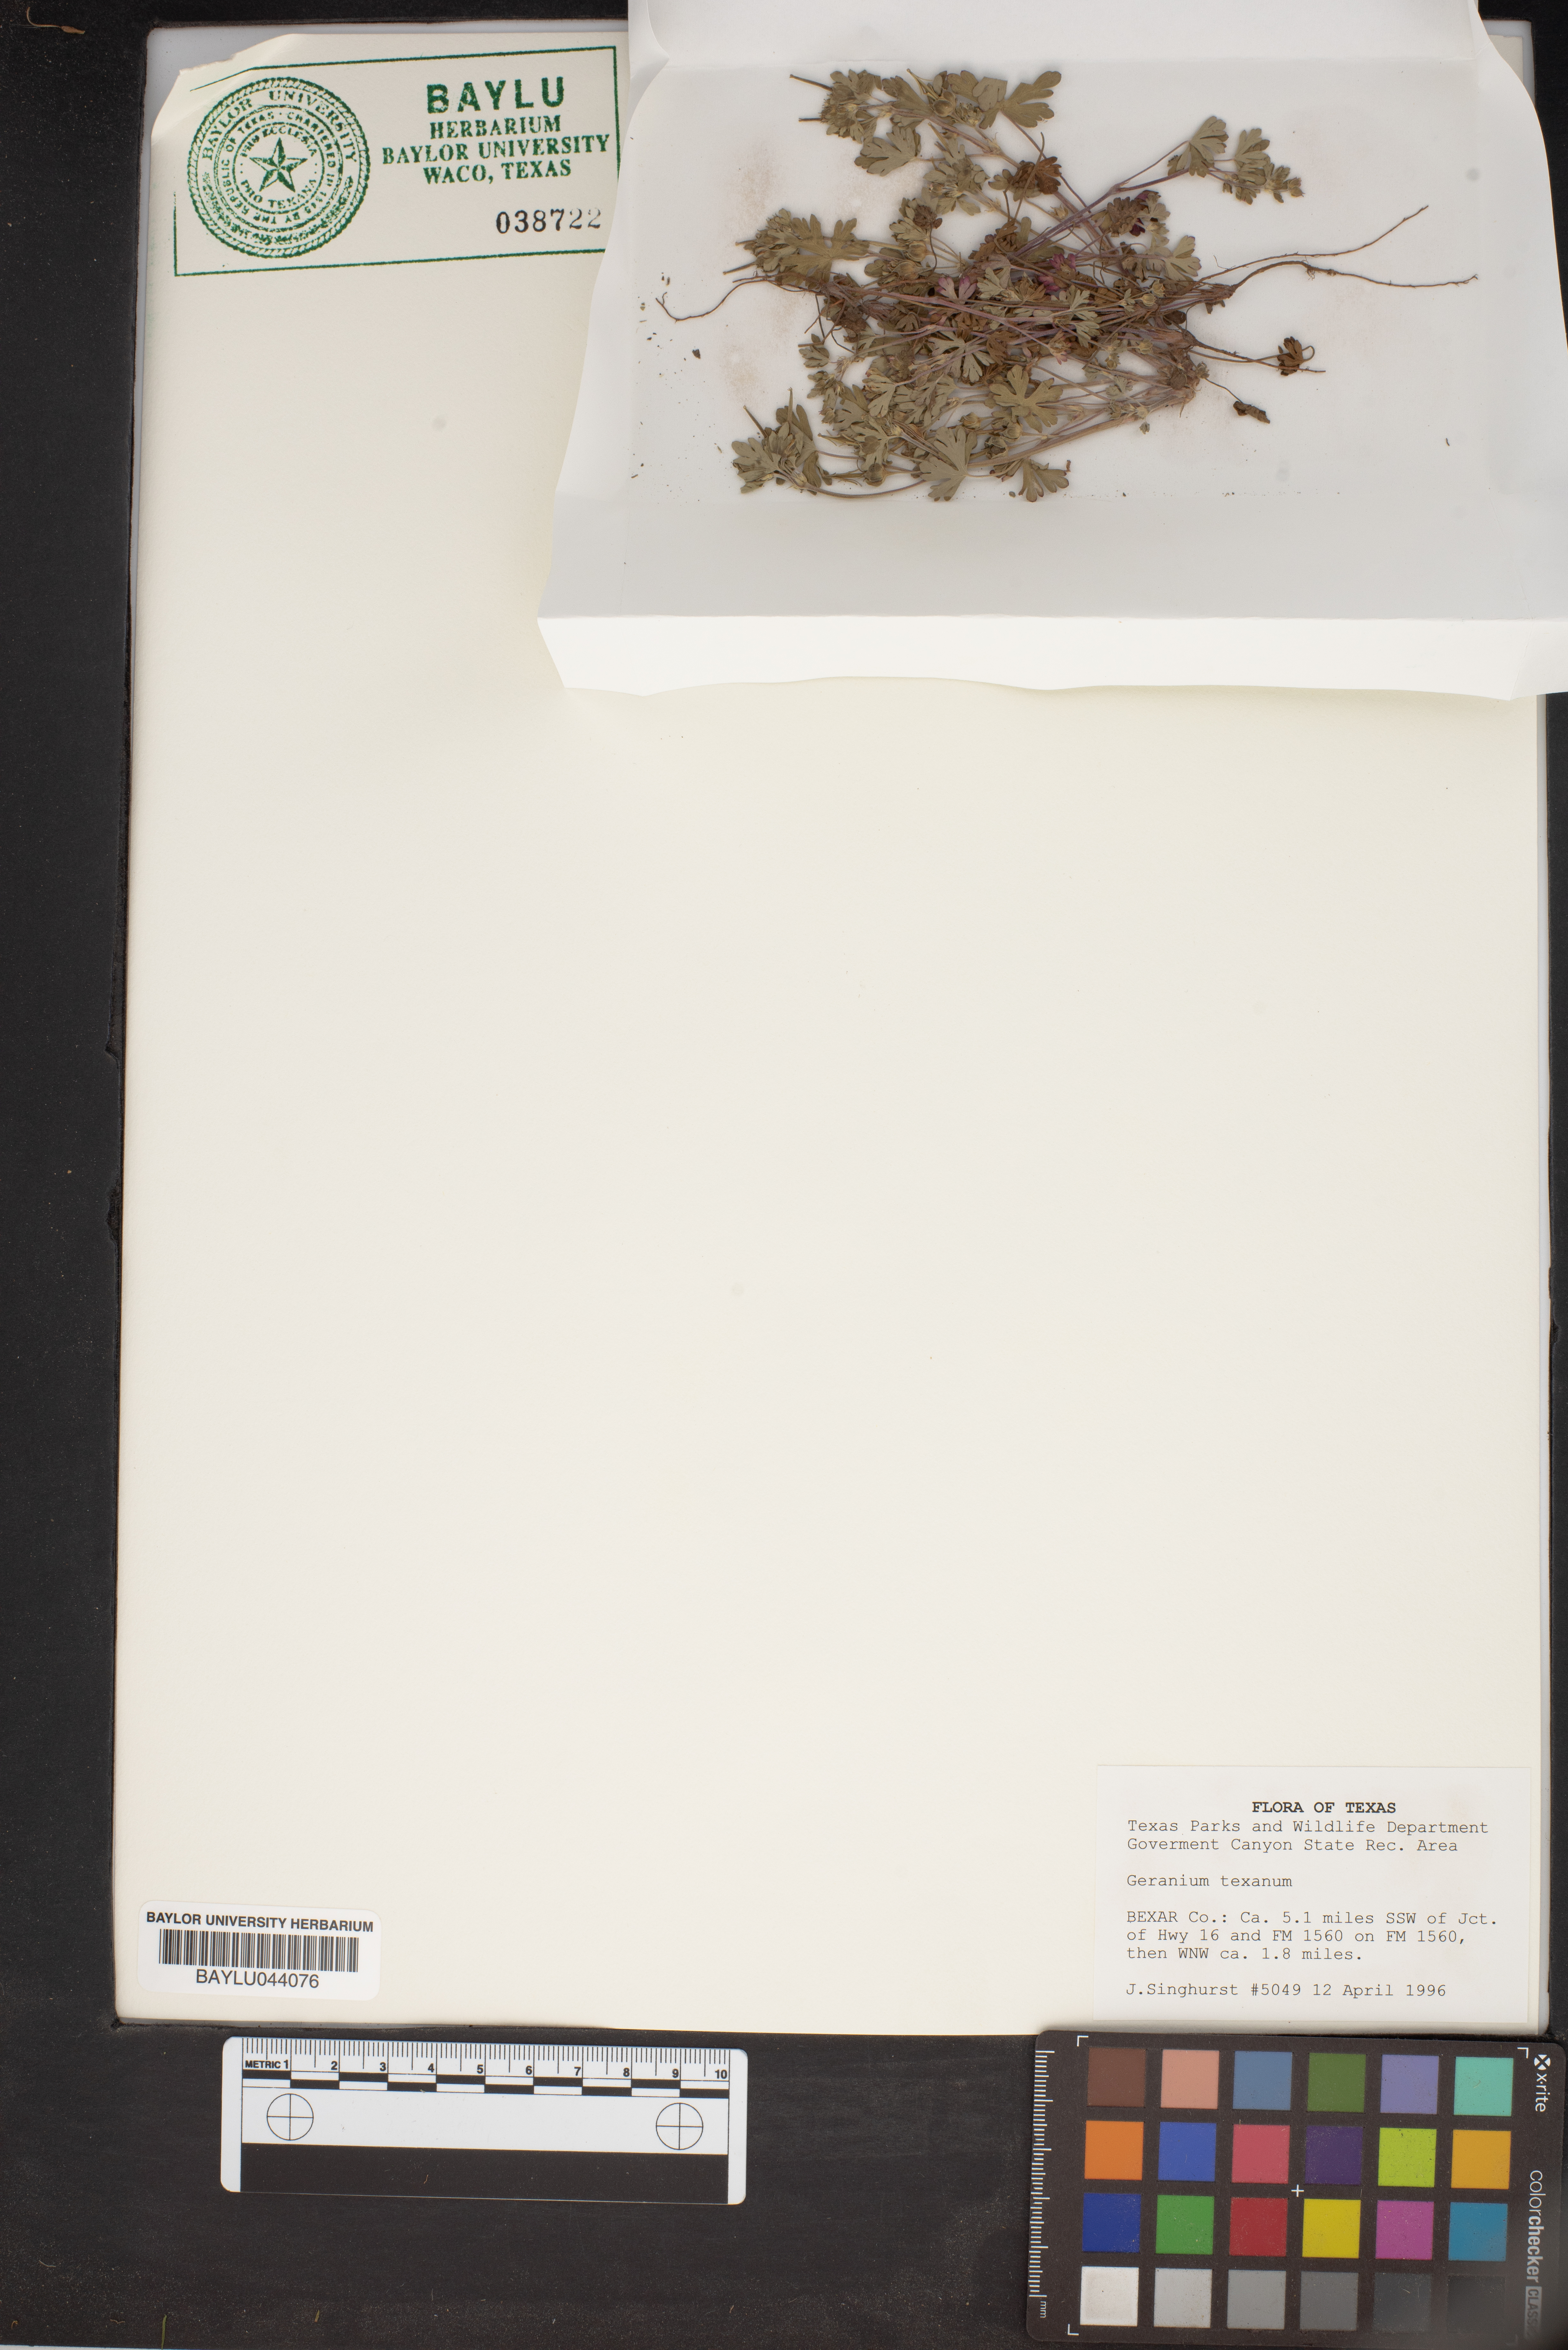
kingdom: Plantae
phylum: Tracheophyta
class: Magnoliopsida
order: Geraniales
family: Geraniaceae
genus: Geranium
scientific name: Geranium texanum
